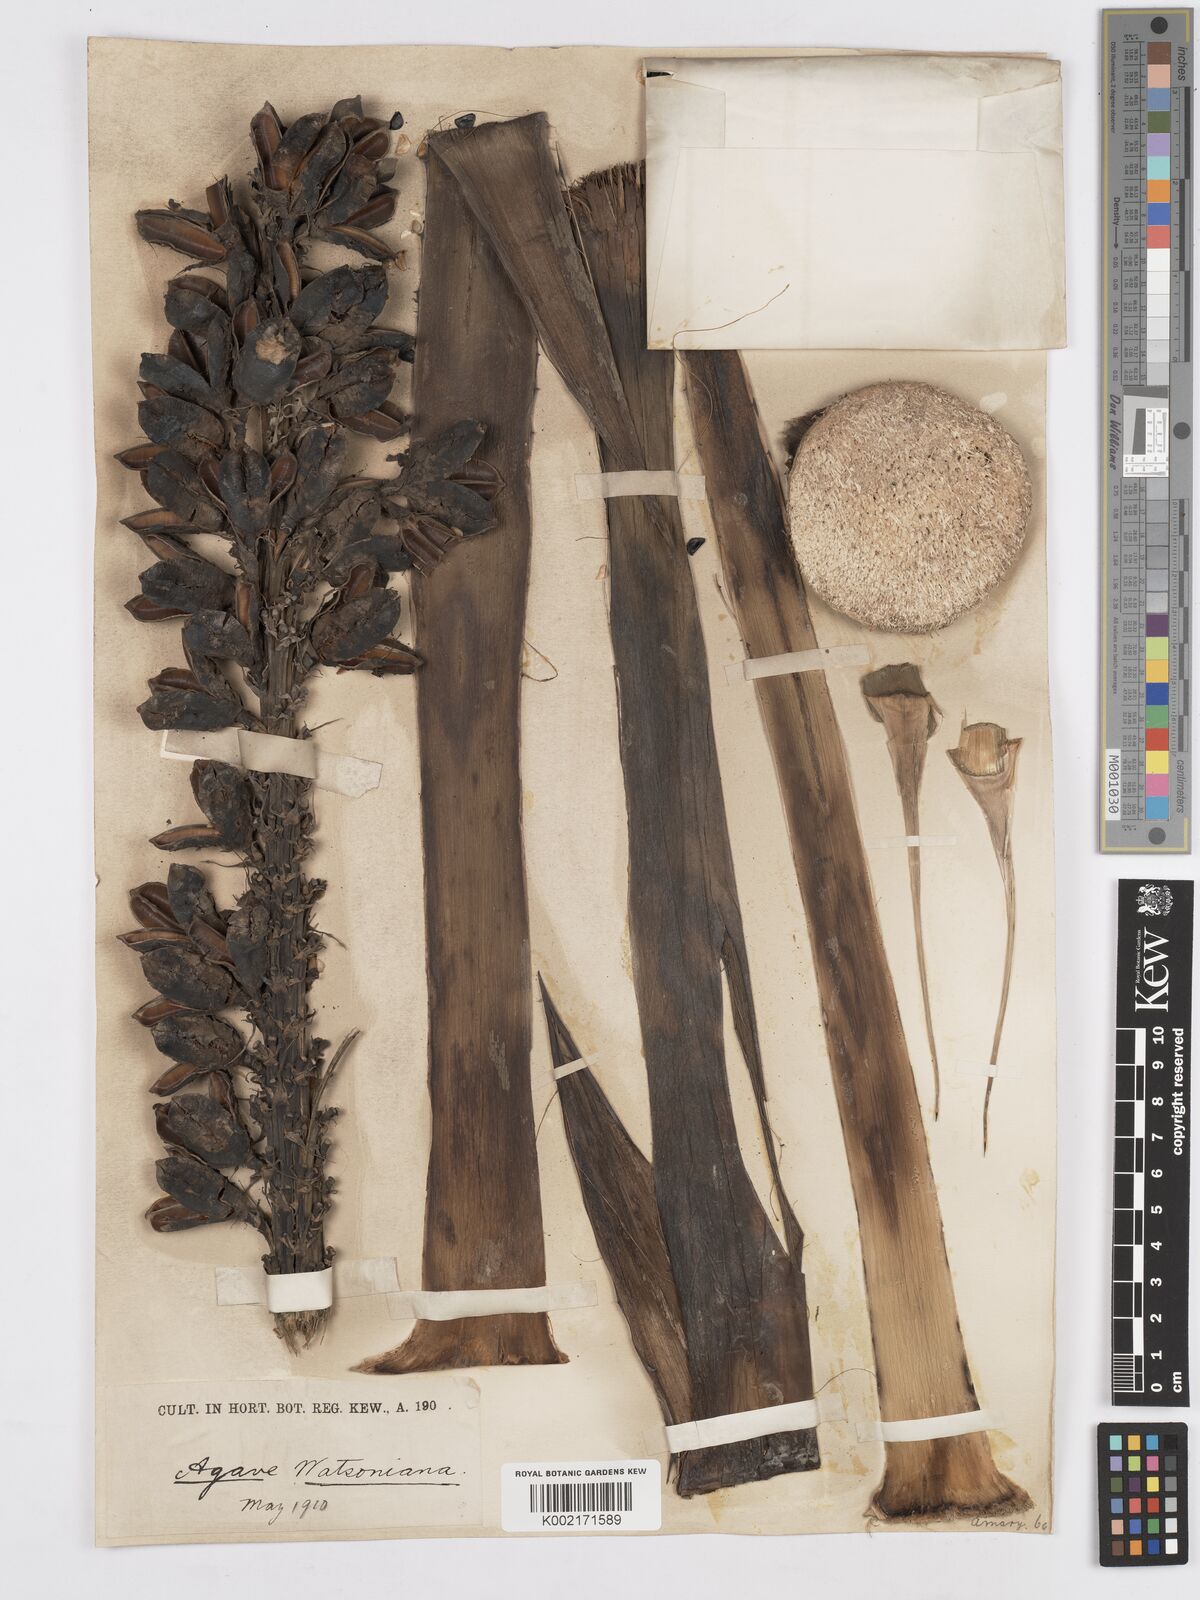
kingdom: Plantae
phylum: Tracheophyta
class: Liliopsida
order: Asparagales
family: Asparagaceae
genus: Agave
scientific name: Agave watsonii
